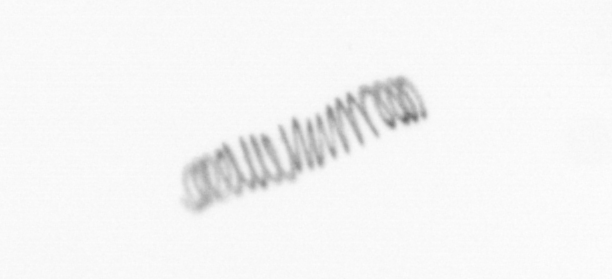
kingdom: Chromista
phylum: Ochrophyta
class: Bacillariophyceae
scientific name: Bacillariophyceae
